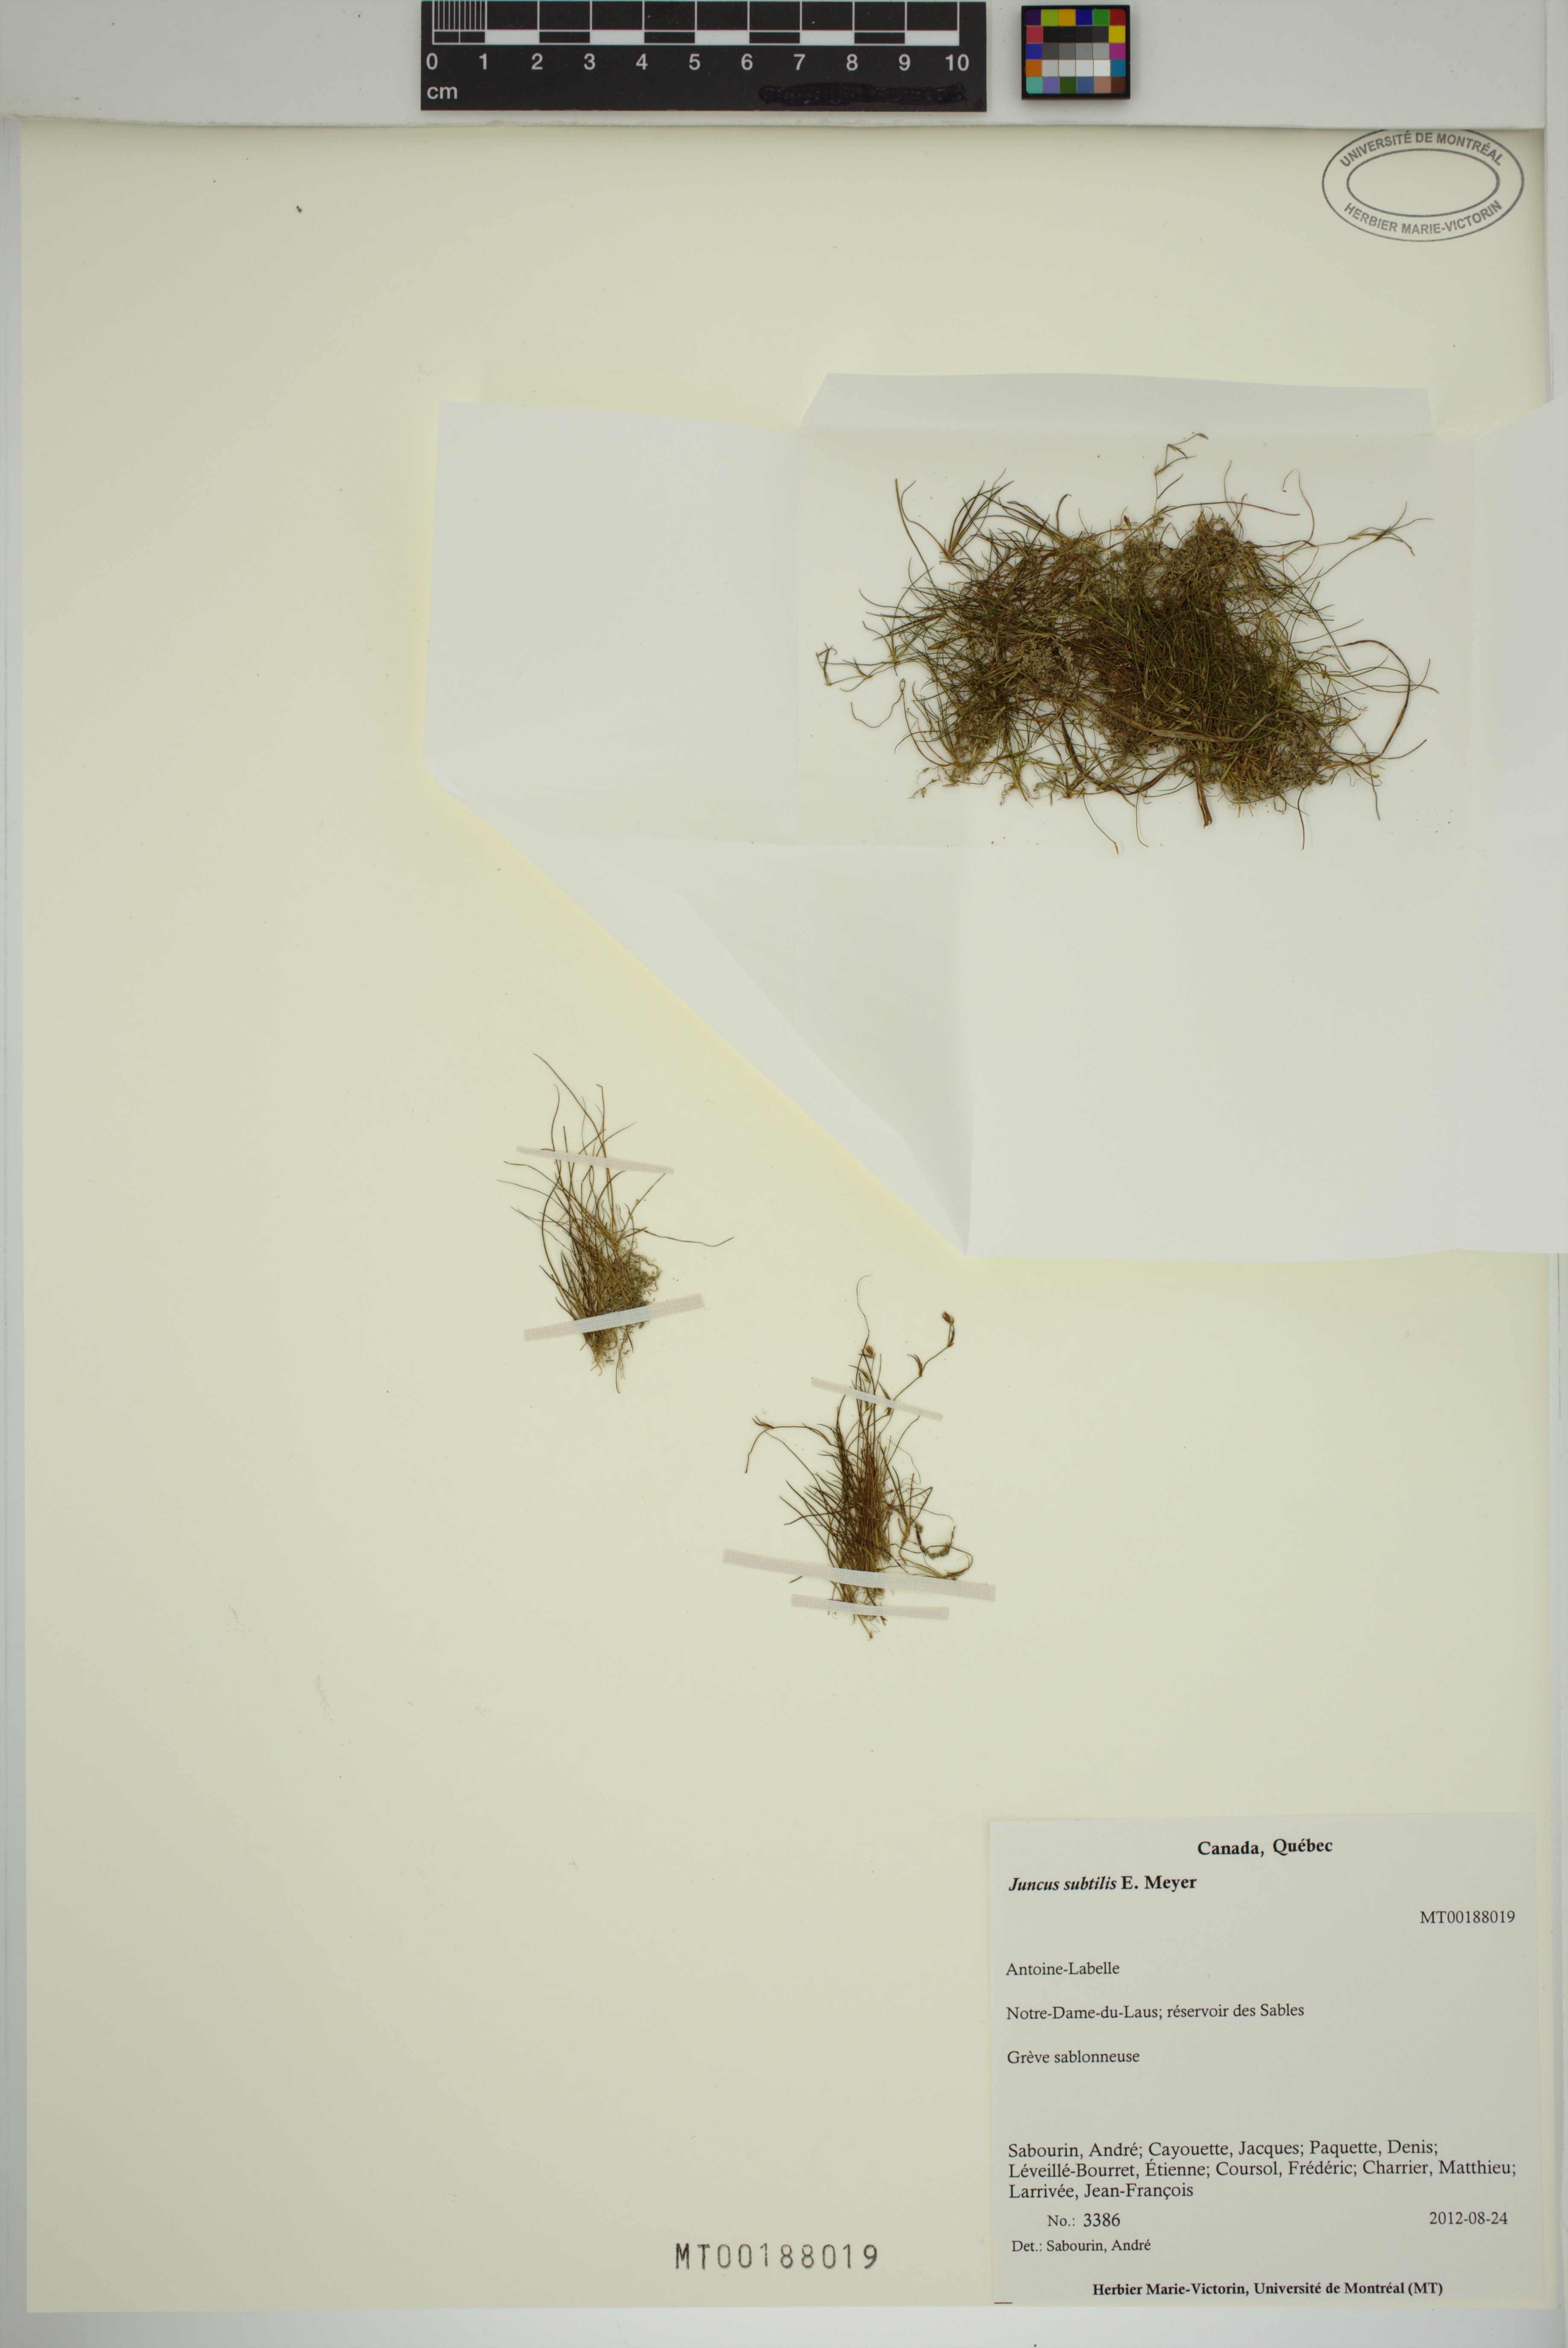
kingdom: Plantae
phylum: Tracheophyta
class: Liliopsida
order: Poales
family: Juncaceae
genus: Juncus
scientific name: Juncus subtilis
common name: Creeping rush
